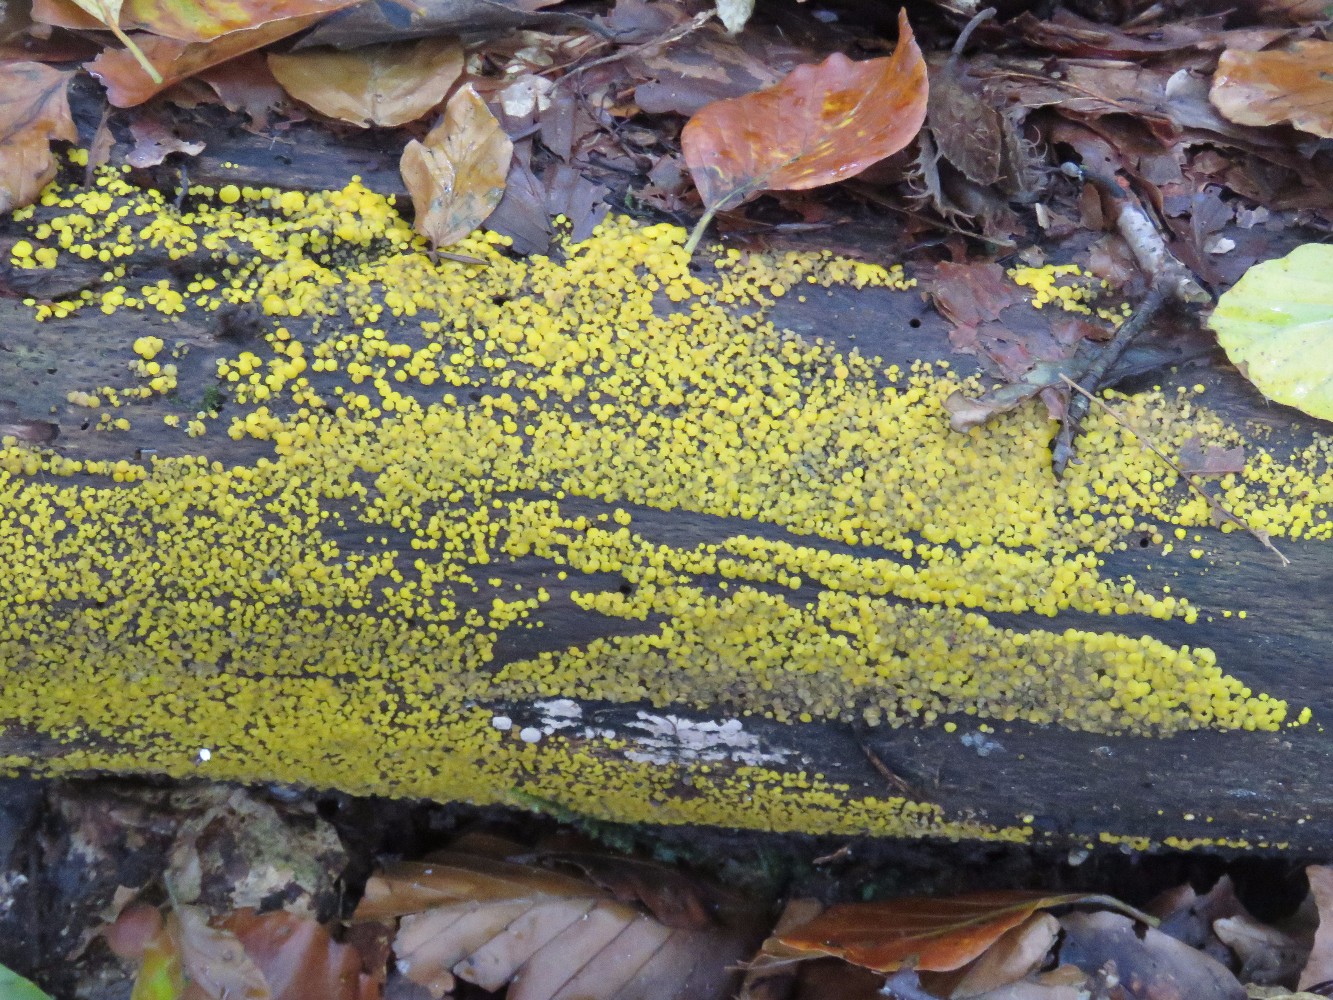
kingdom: Fungi
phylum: Ascomycota
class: Leotiomycetes
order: Helotiales
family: Pezizellaceae
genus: Calycina
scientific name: Calycina citrina
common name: almindelig gulskive
